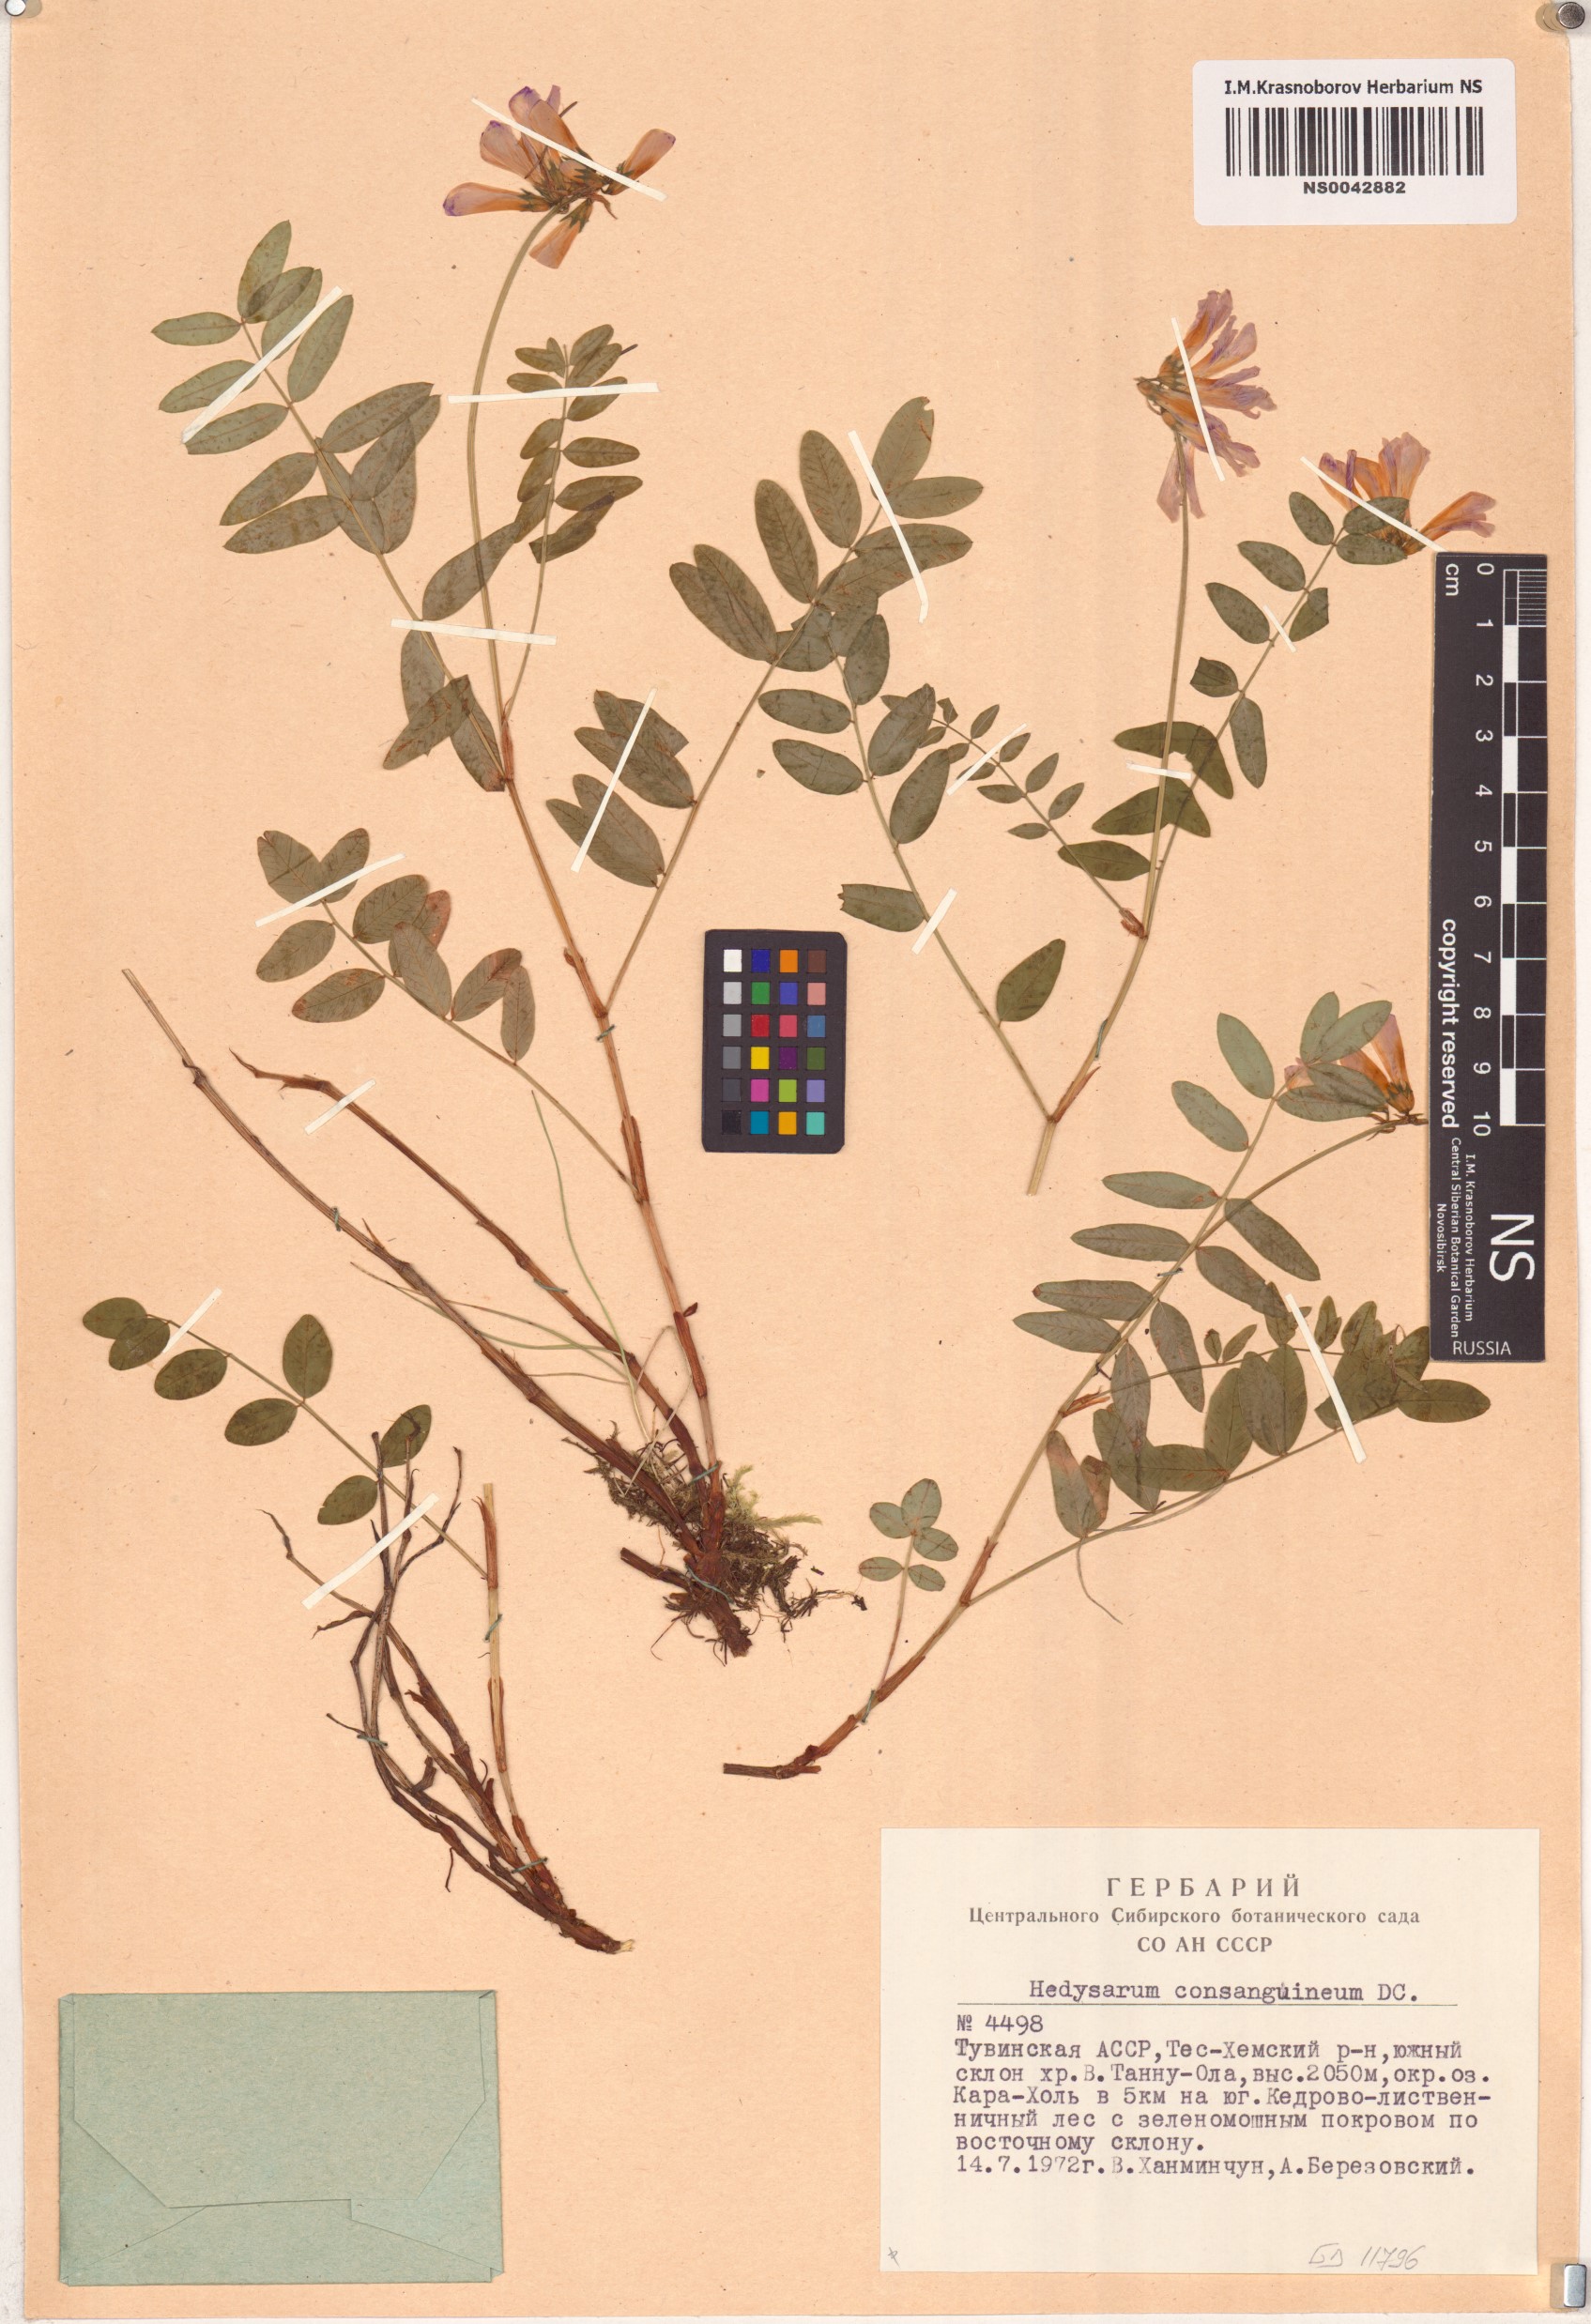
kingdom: Plantae
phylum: Tracheophyta
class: Magnoliopsida
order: Fabales
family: Fabaceae
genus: Hedysarum
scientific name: Hedysarum consanguineum
